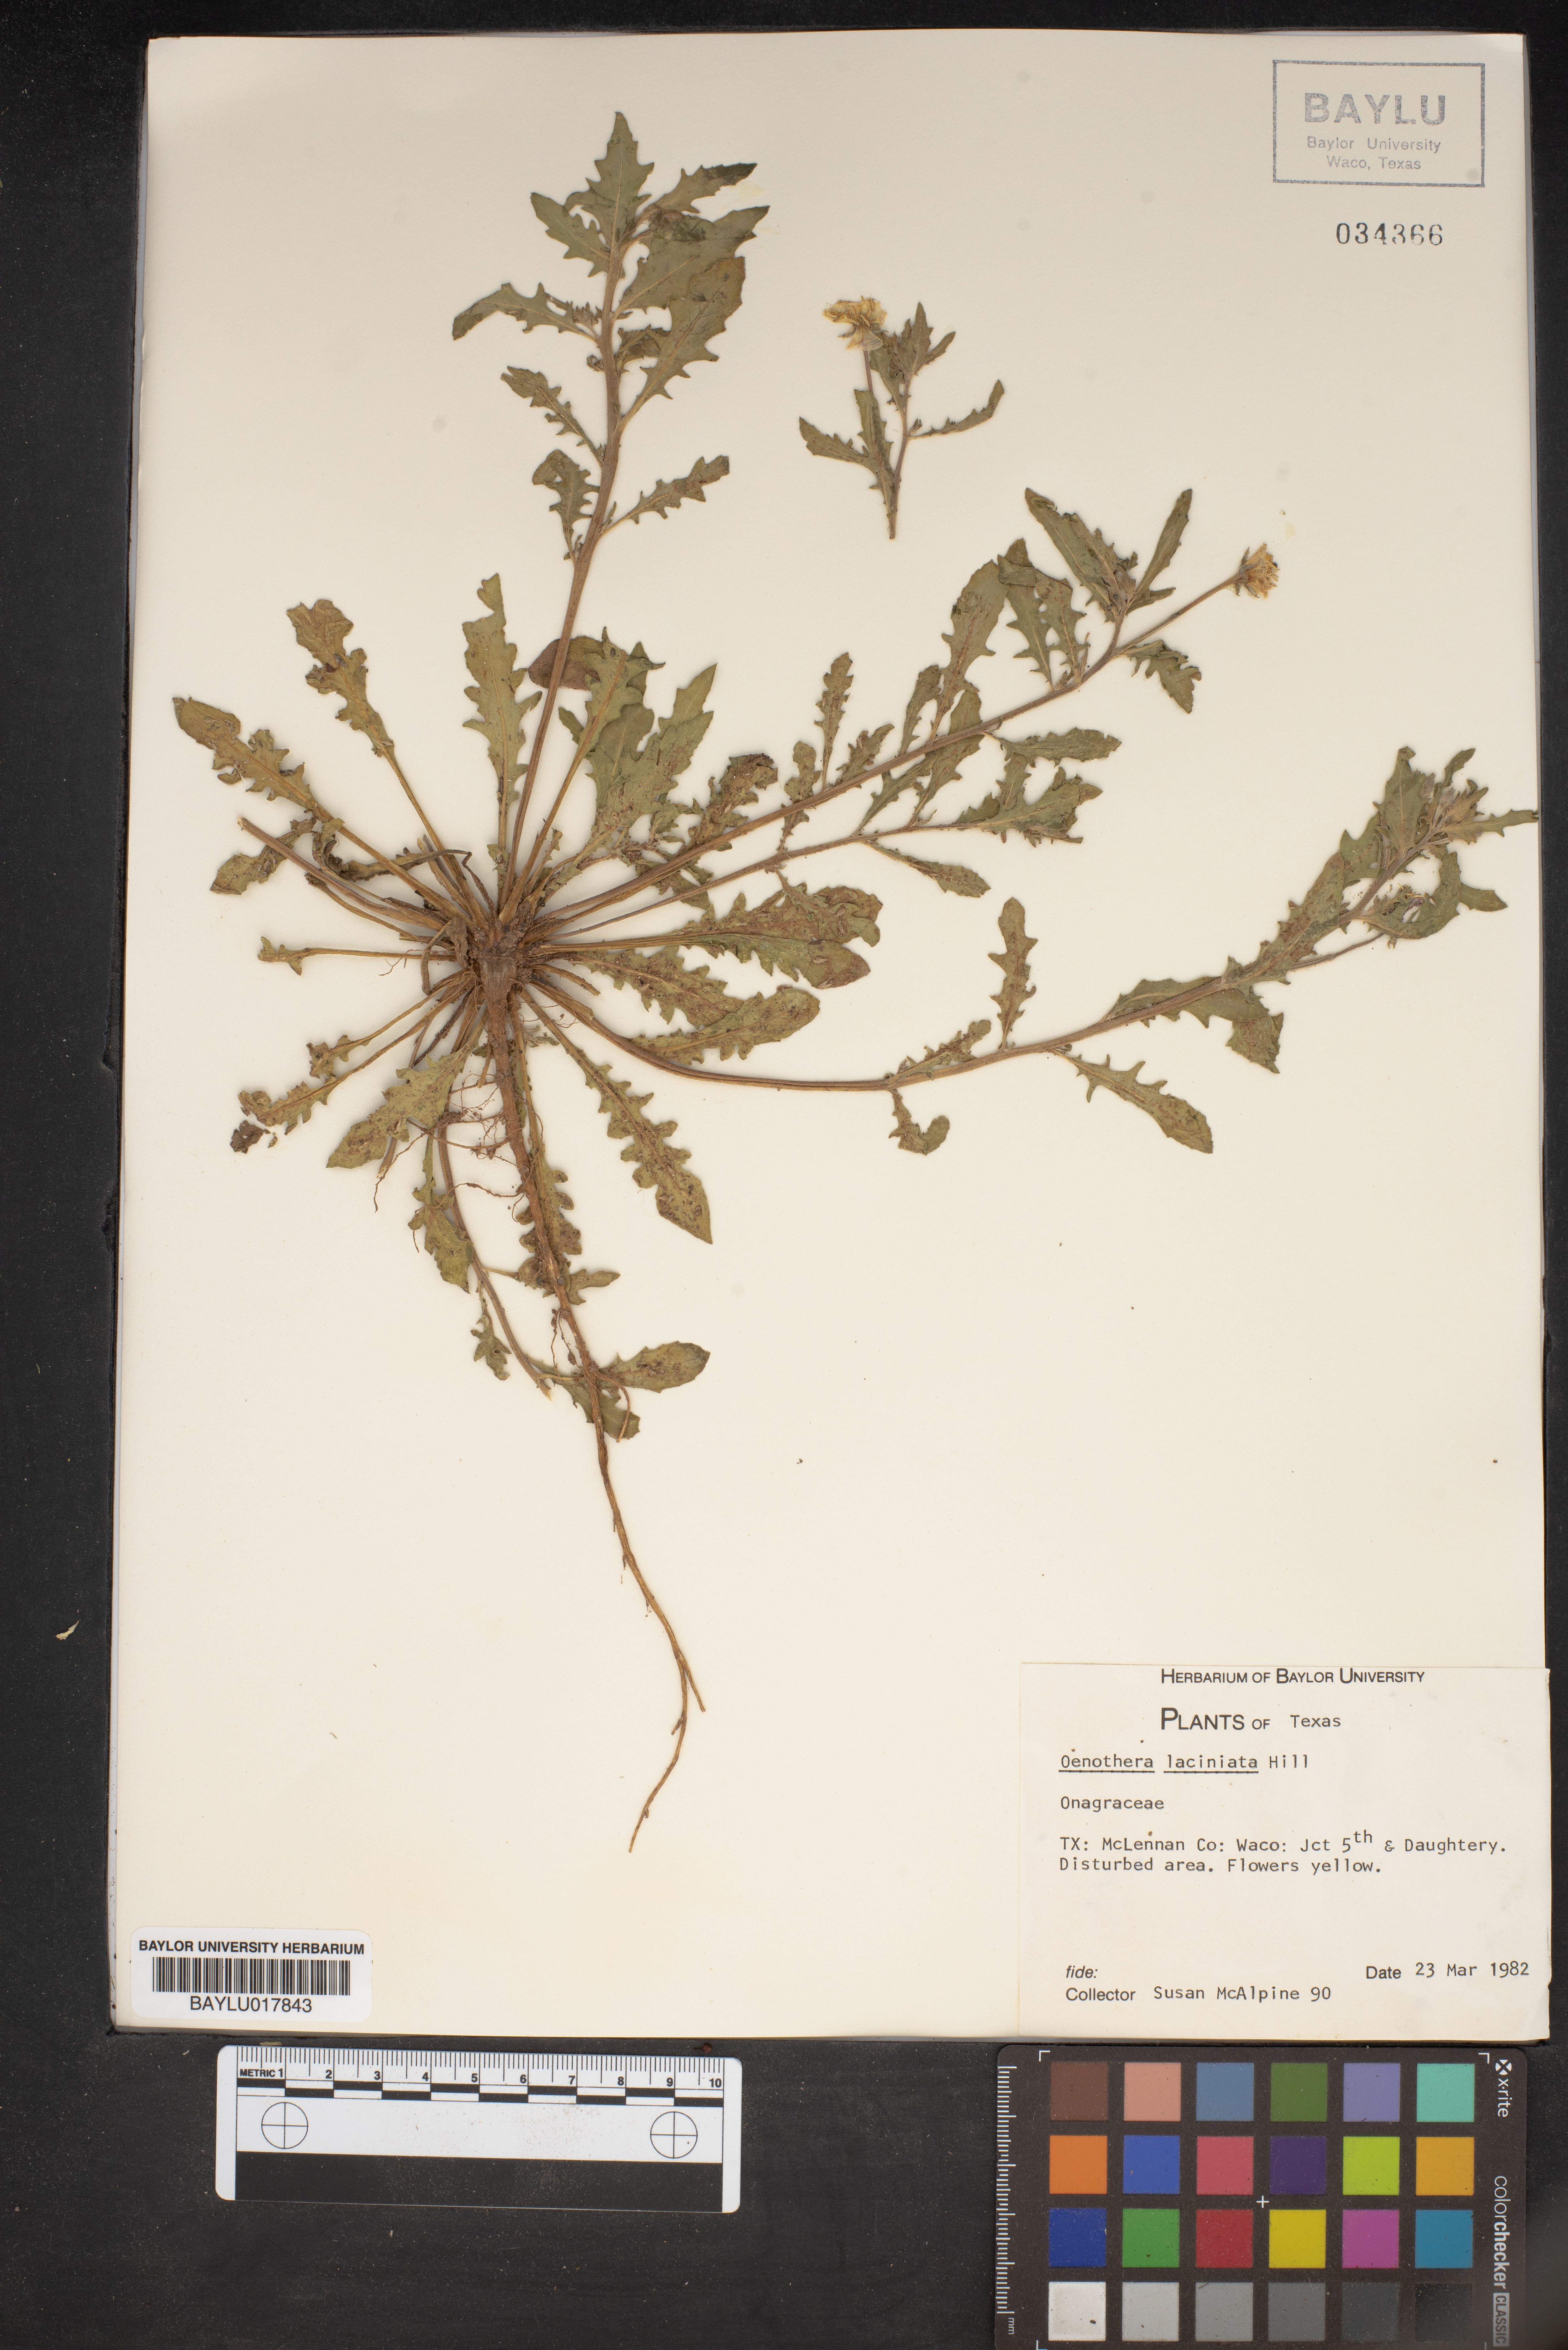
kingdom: Plantae
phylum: Tracheophyta
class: Magnoliopsida
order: Myrtales
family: Onagraceae
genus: Oenothera
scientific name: Oenothera laciniata
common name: Cut-leaved evening-primrose
